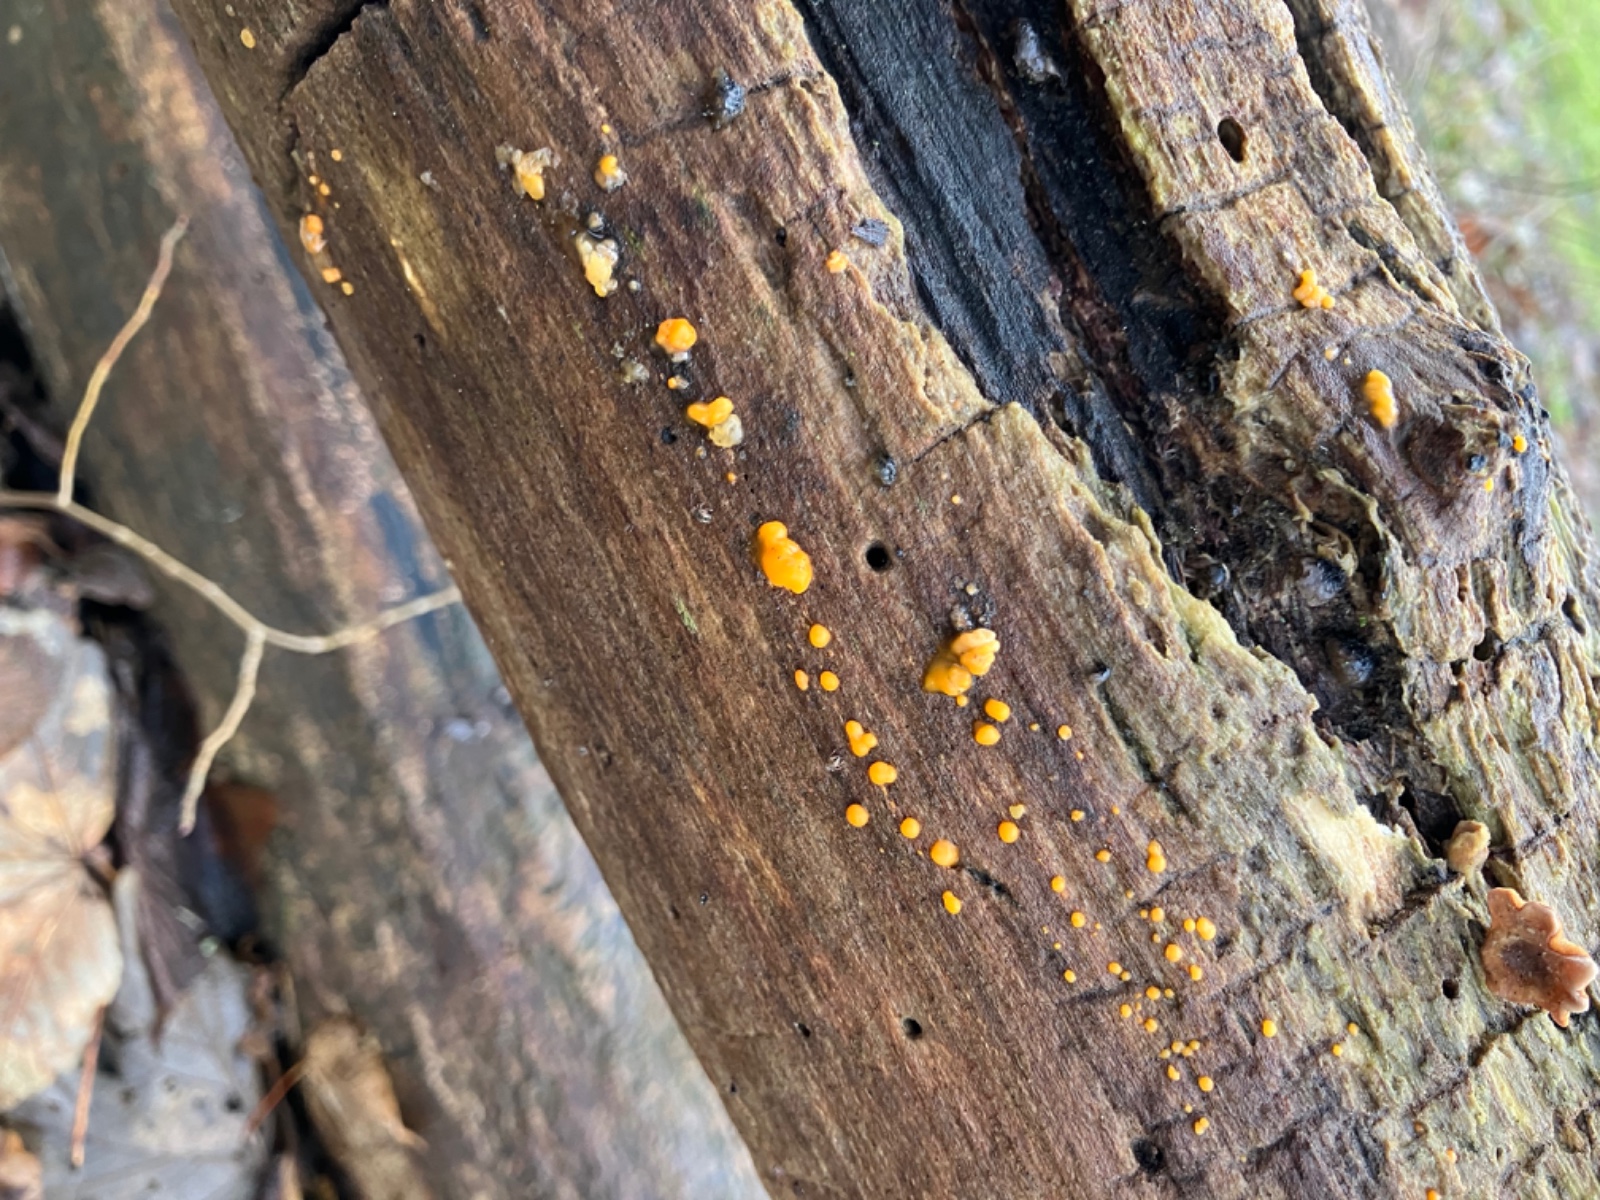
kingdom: Fungi
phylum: Basidiomycota
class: Dacrymycetes
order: Dacrymycetales
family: Dacrymycetaceae
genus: Dacrymyces
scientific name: Dacrymyces stillatus
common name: almindelig tåresvamp
